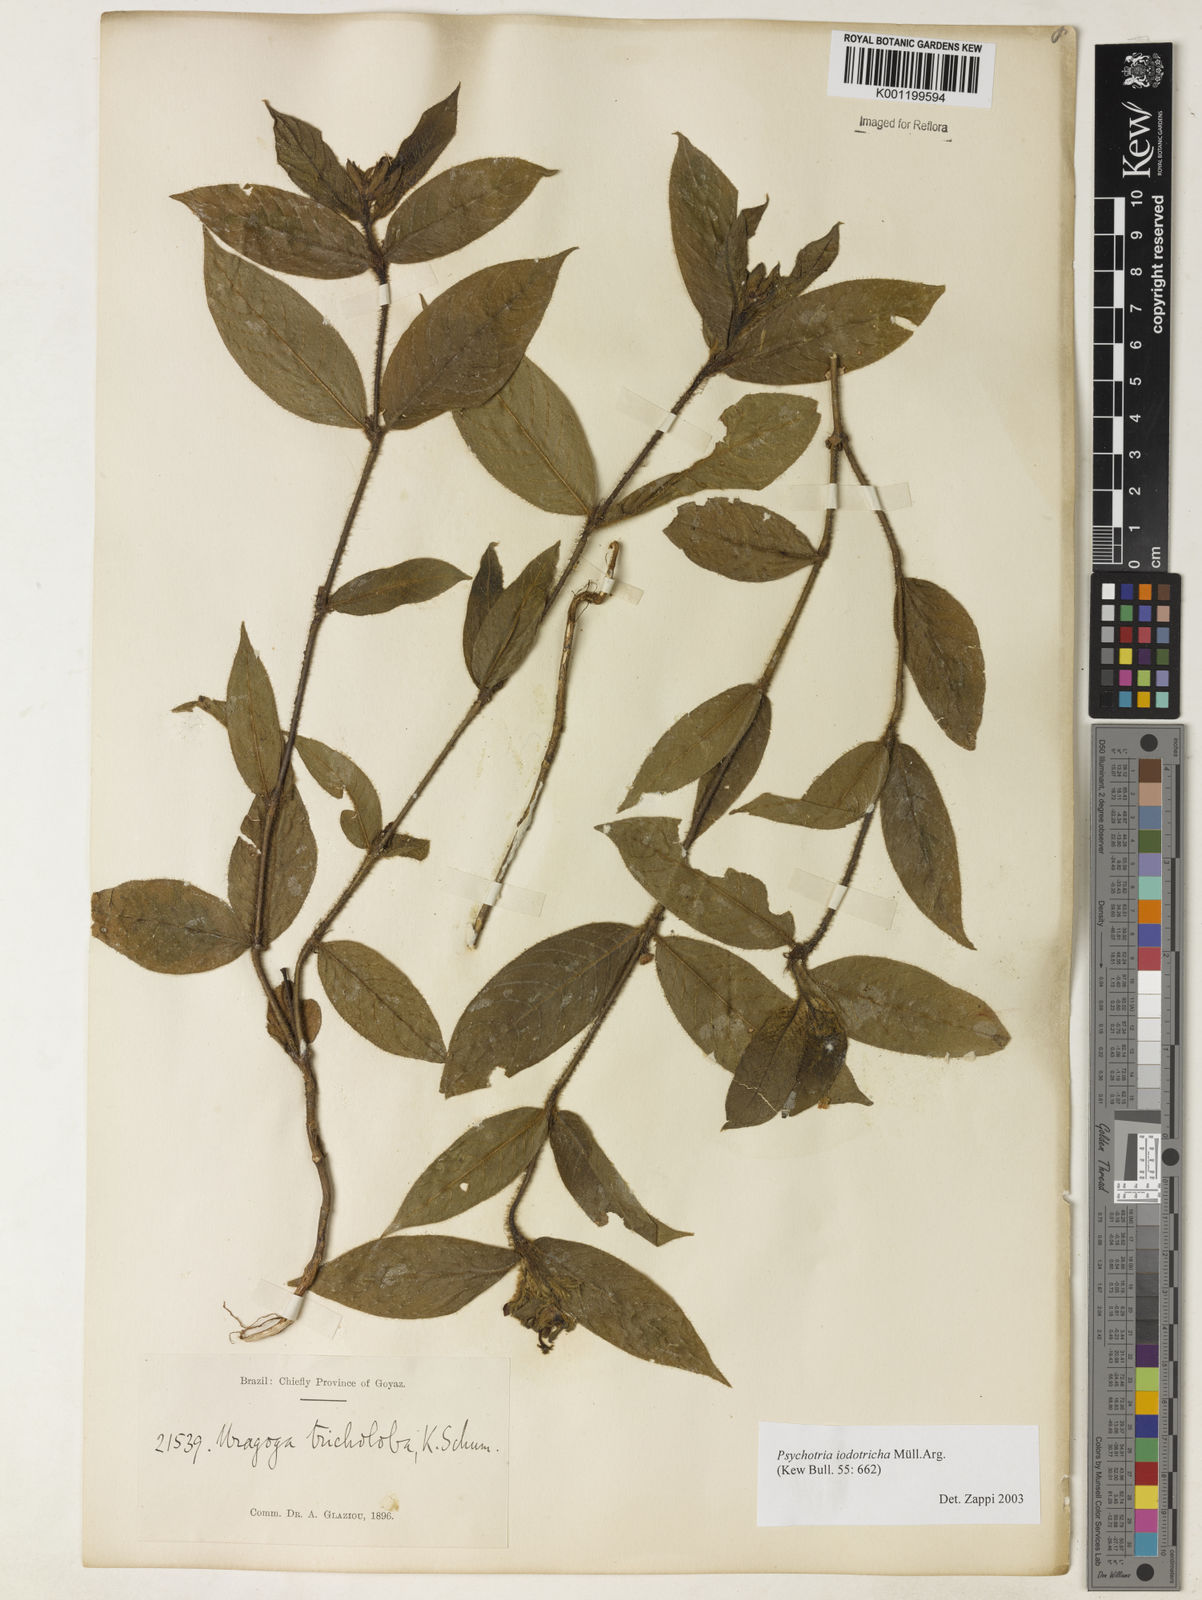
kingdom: Plantae
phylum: Tracheophyta
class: Magnoliopsida
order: Gentianales
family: Rubiaceae
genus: Psychotria
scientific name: Psychotria
